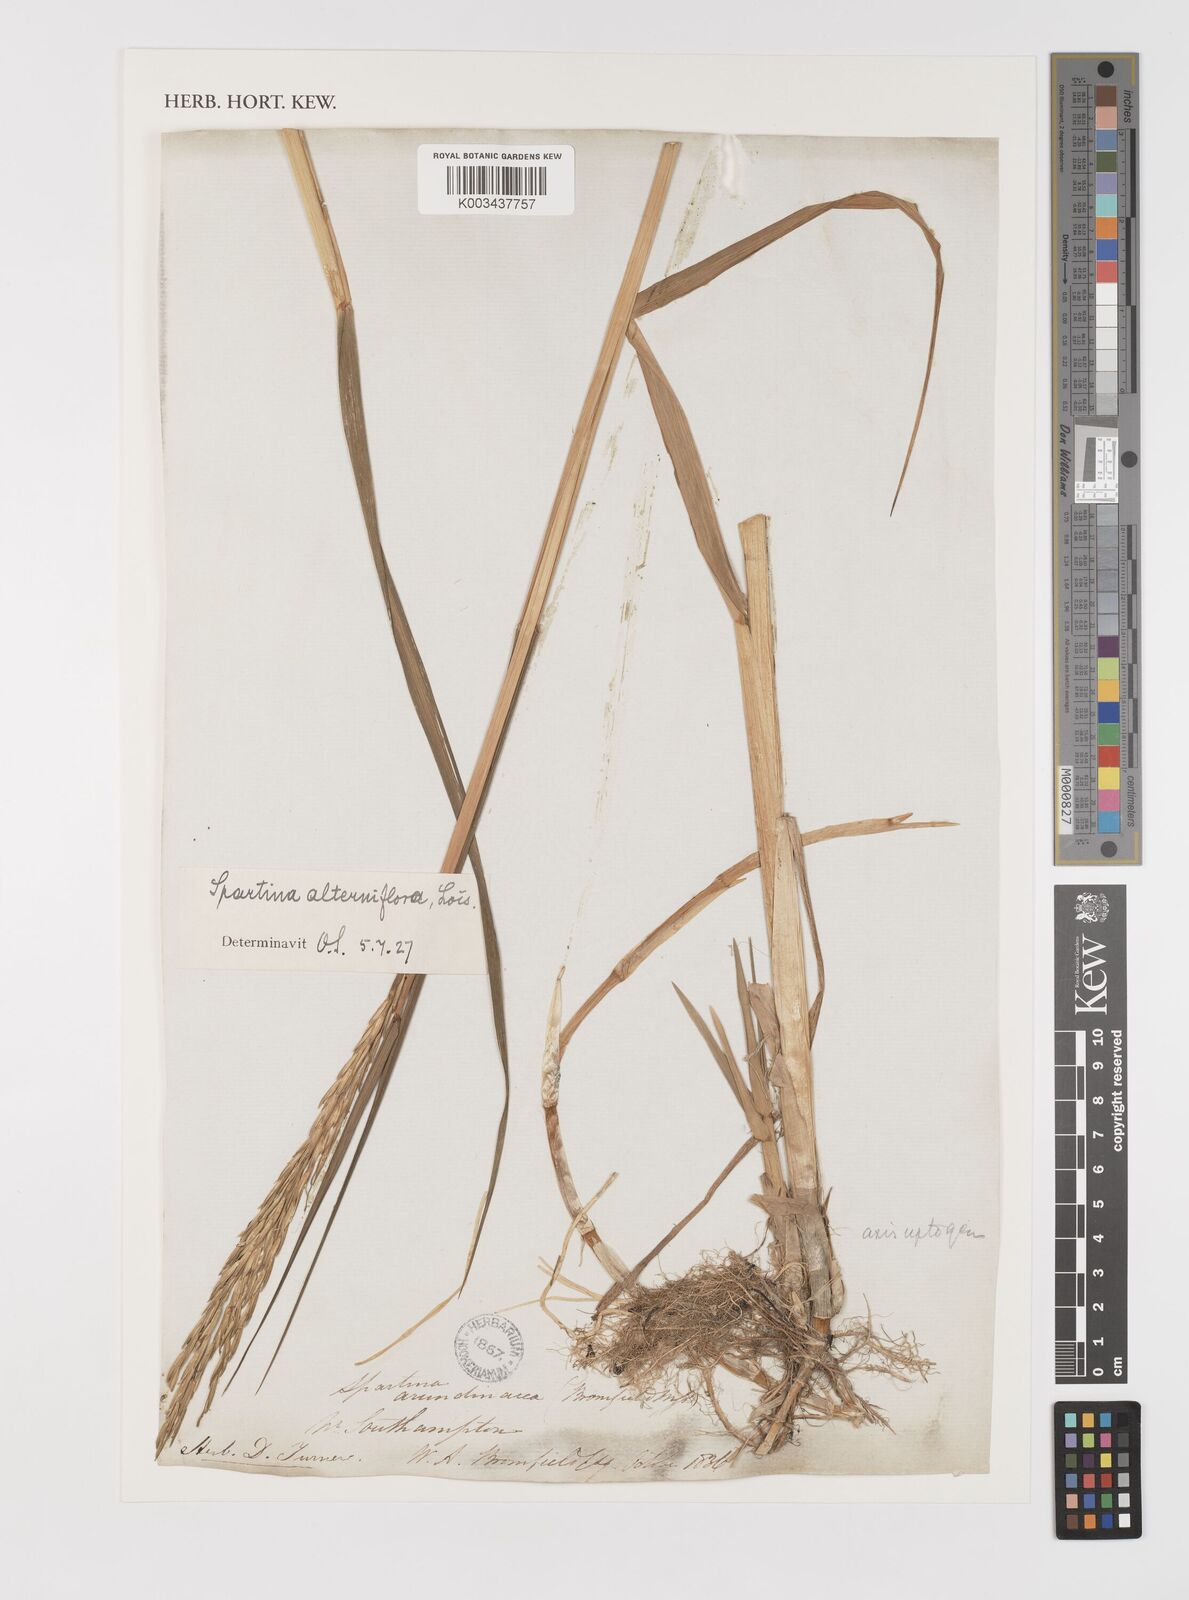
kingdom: Plantae
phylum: Tracheophyta
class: Liliopsida
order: Poales
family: Poaceae
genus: Sporobolus
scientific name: Sporobolus alterniflorus
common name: Atlantic cordgrass
